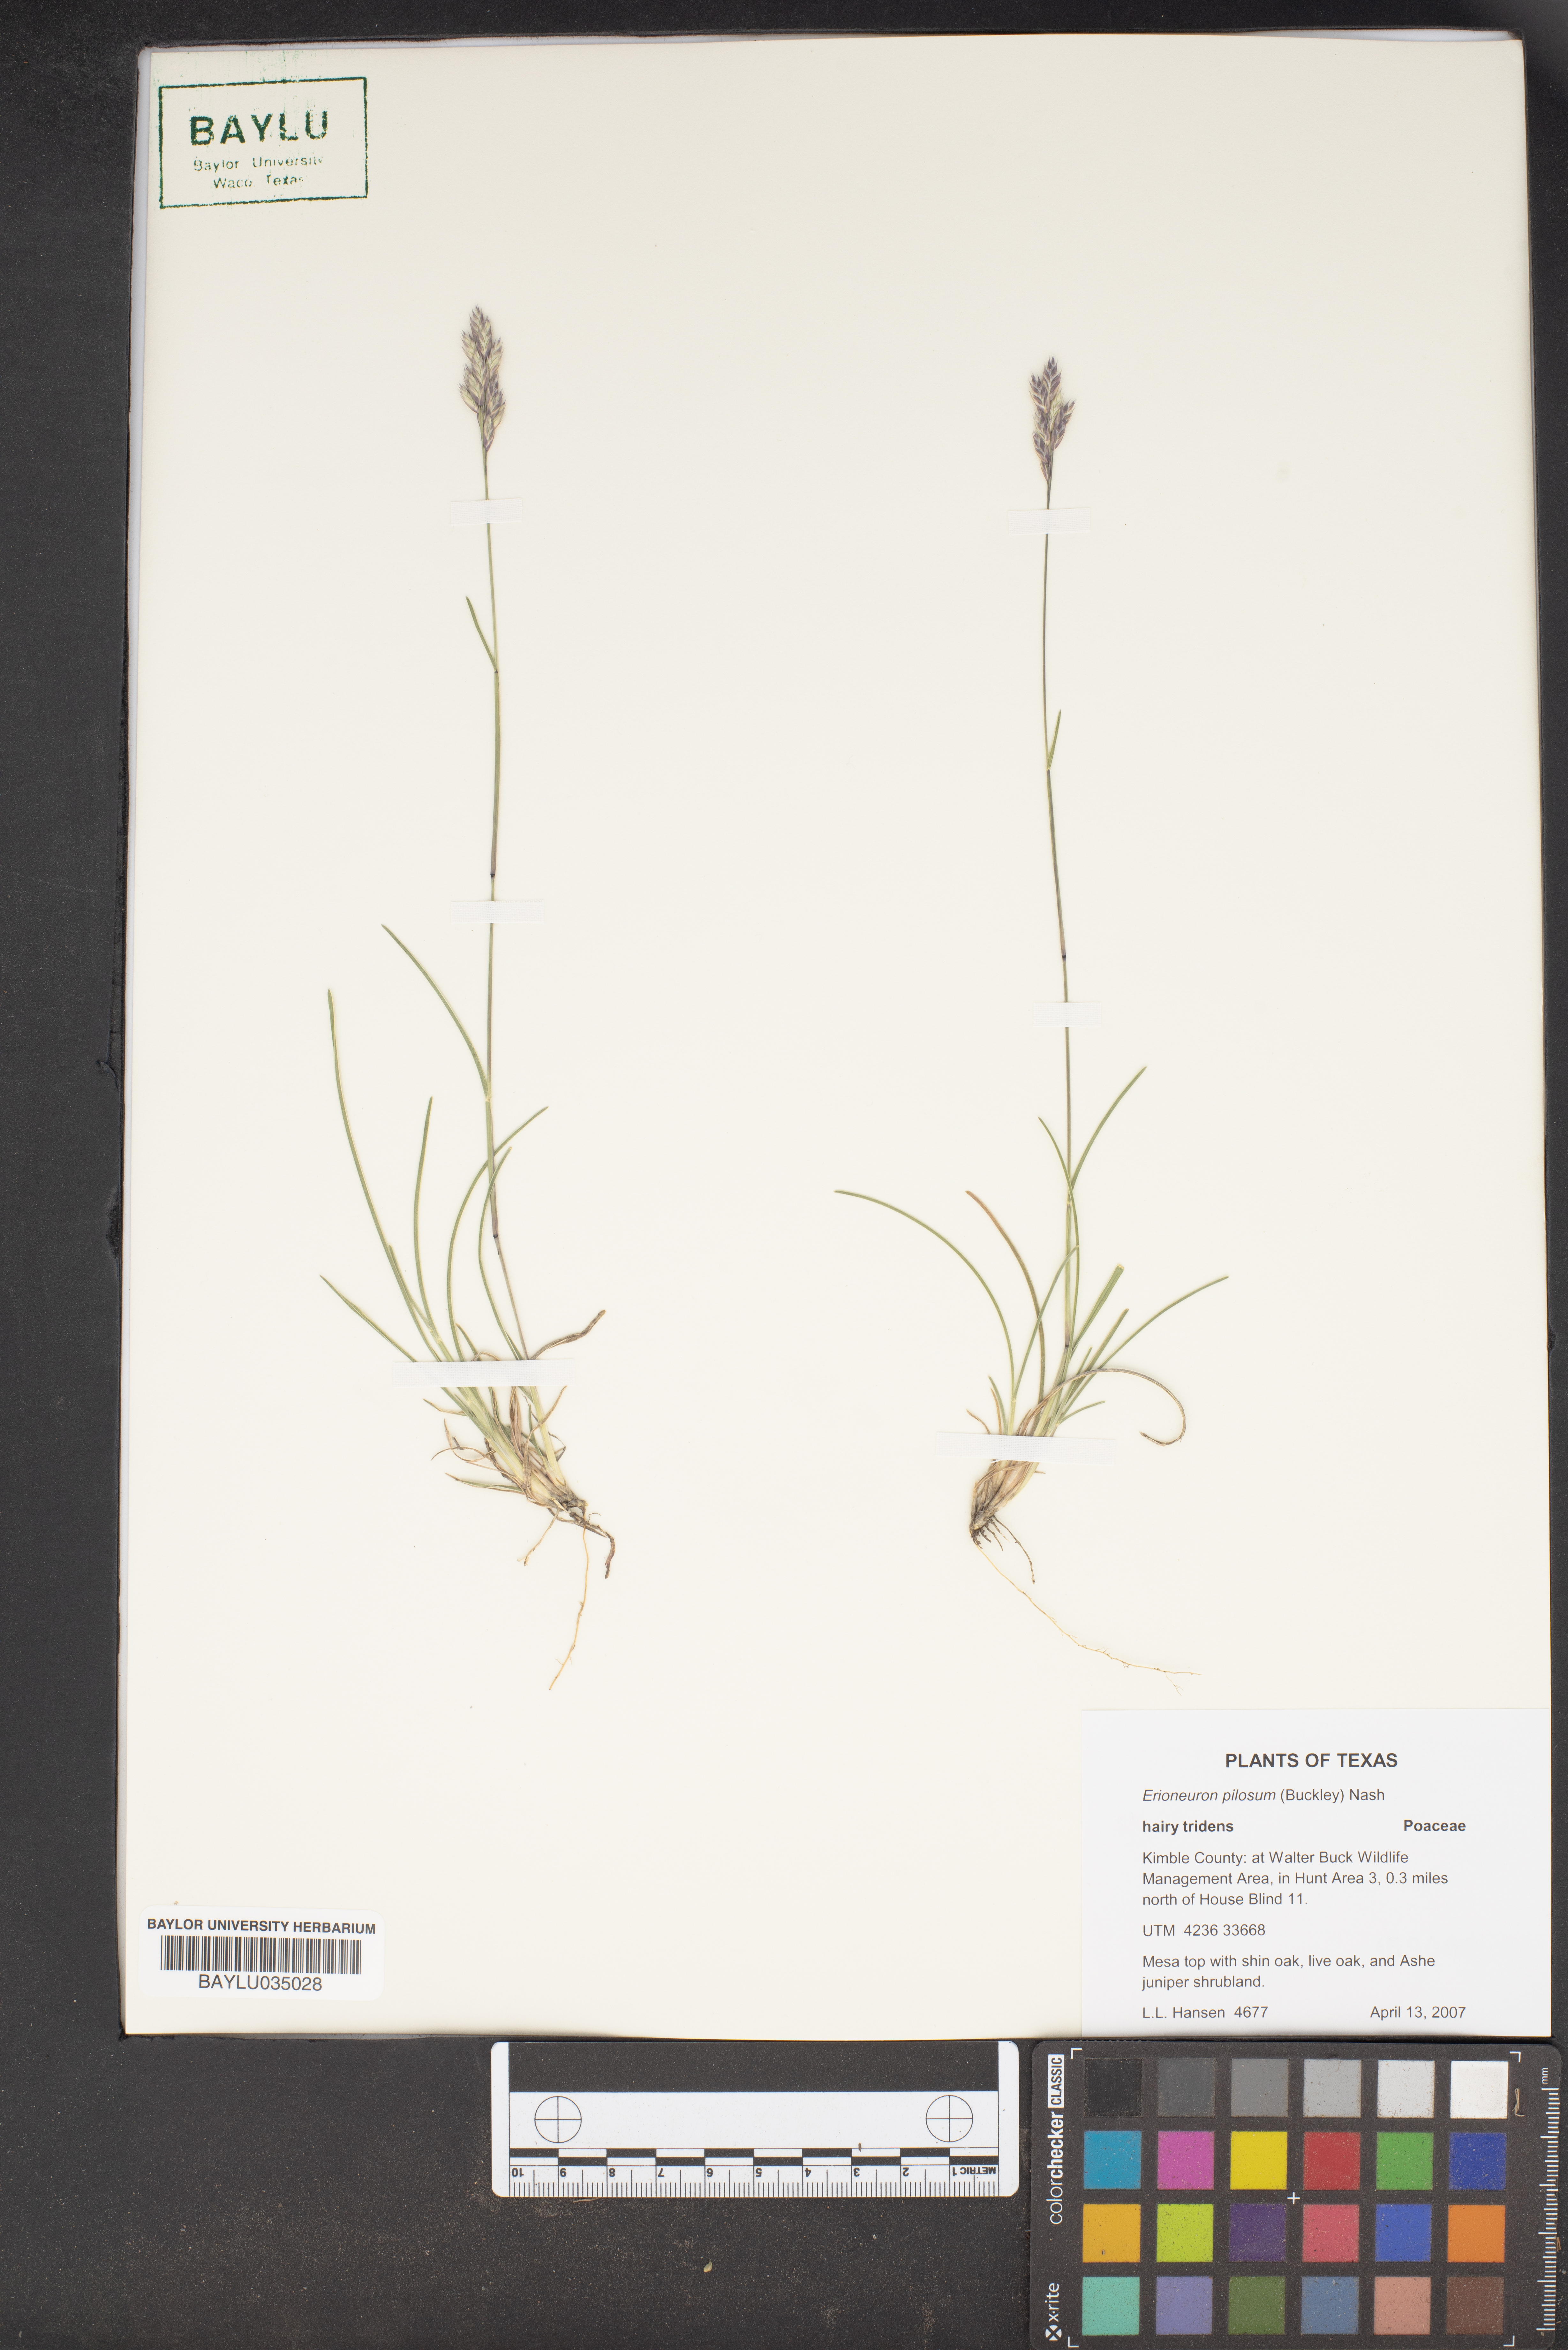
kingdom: Plantae
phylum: Tracheophyta
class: Liliopsida
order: Poales
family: Poaceae
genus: Erioneuron
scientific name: Erioneuron pilosum
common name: Hairy woolly grass
